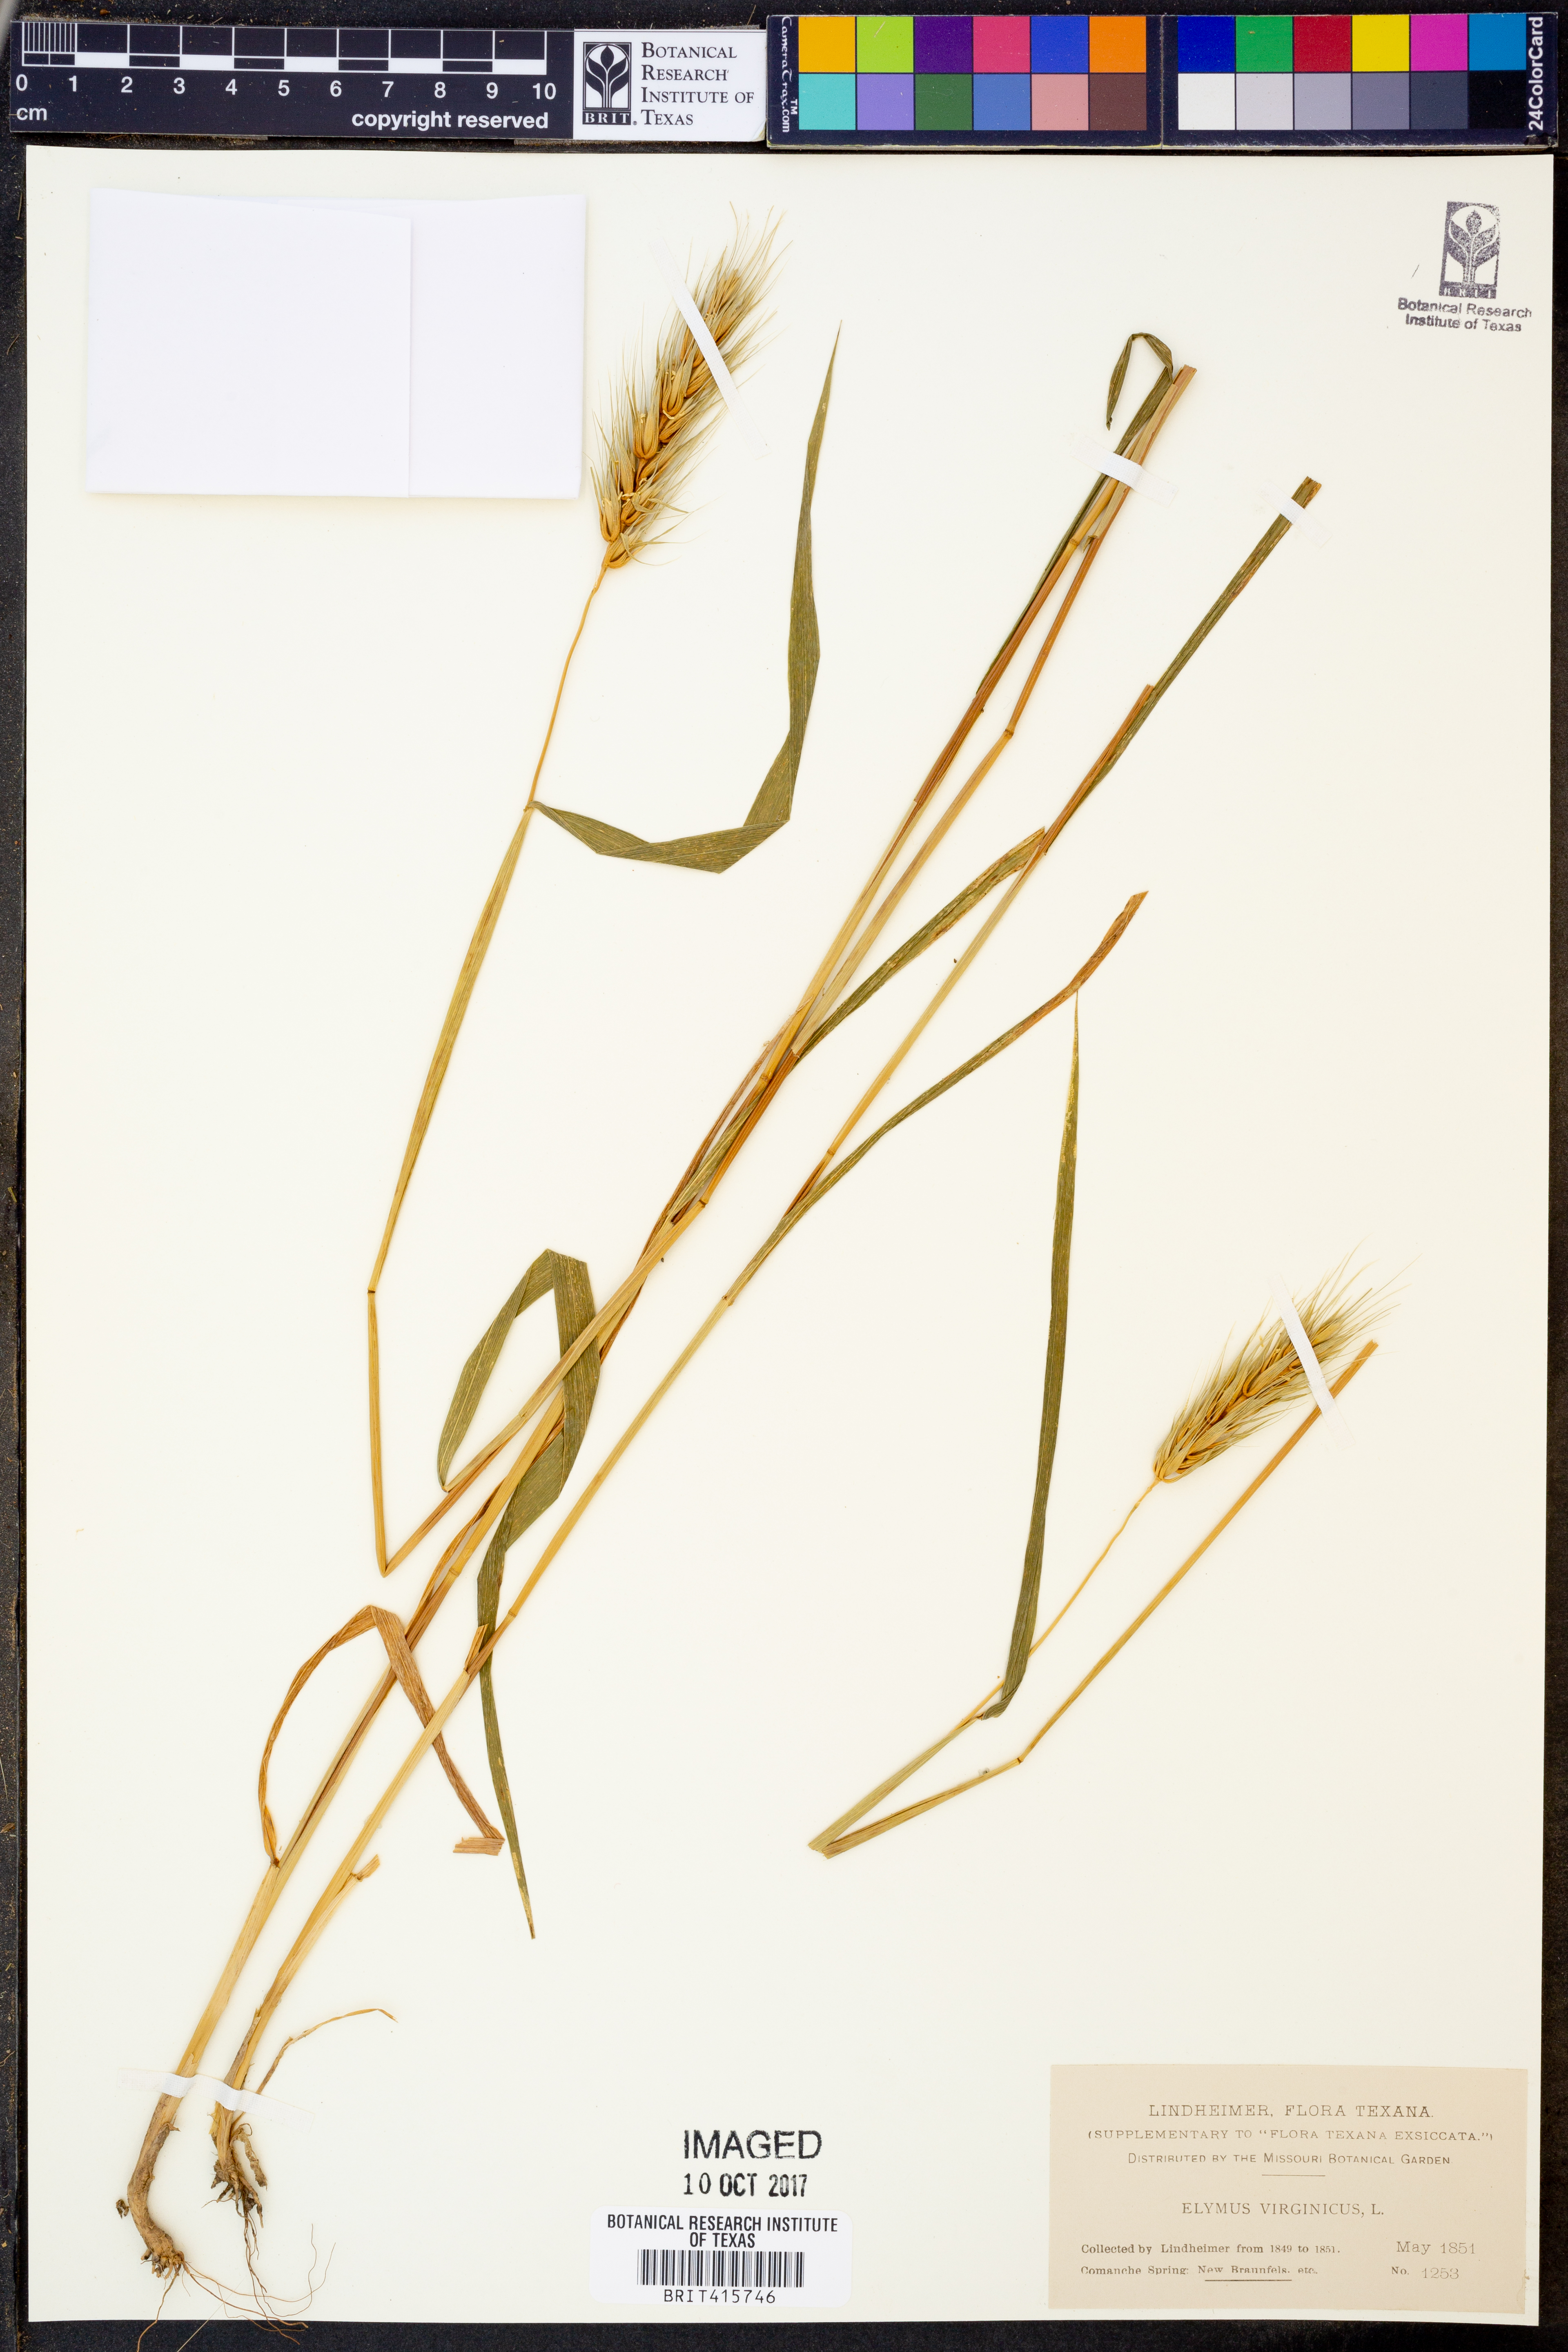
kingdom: Plantae
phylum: Tracheophyta
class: Liliopsida
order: Poales
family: Poaceae
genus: Elymus
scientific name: Elymus virginicus
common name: Common eastern wildrye
